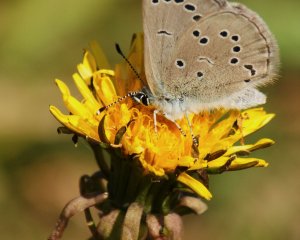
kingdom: Animalia
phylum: Arthropoda
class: Insecta
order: Lepidoptera
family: Lycaenidae
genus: Glaucopsyche
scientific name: Glaucopsyche lygdamus
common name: Silvery Blue
